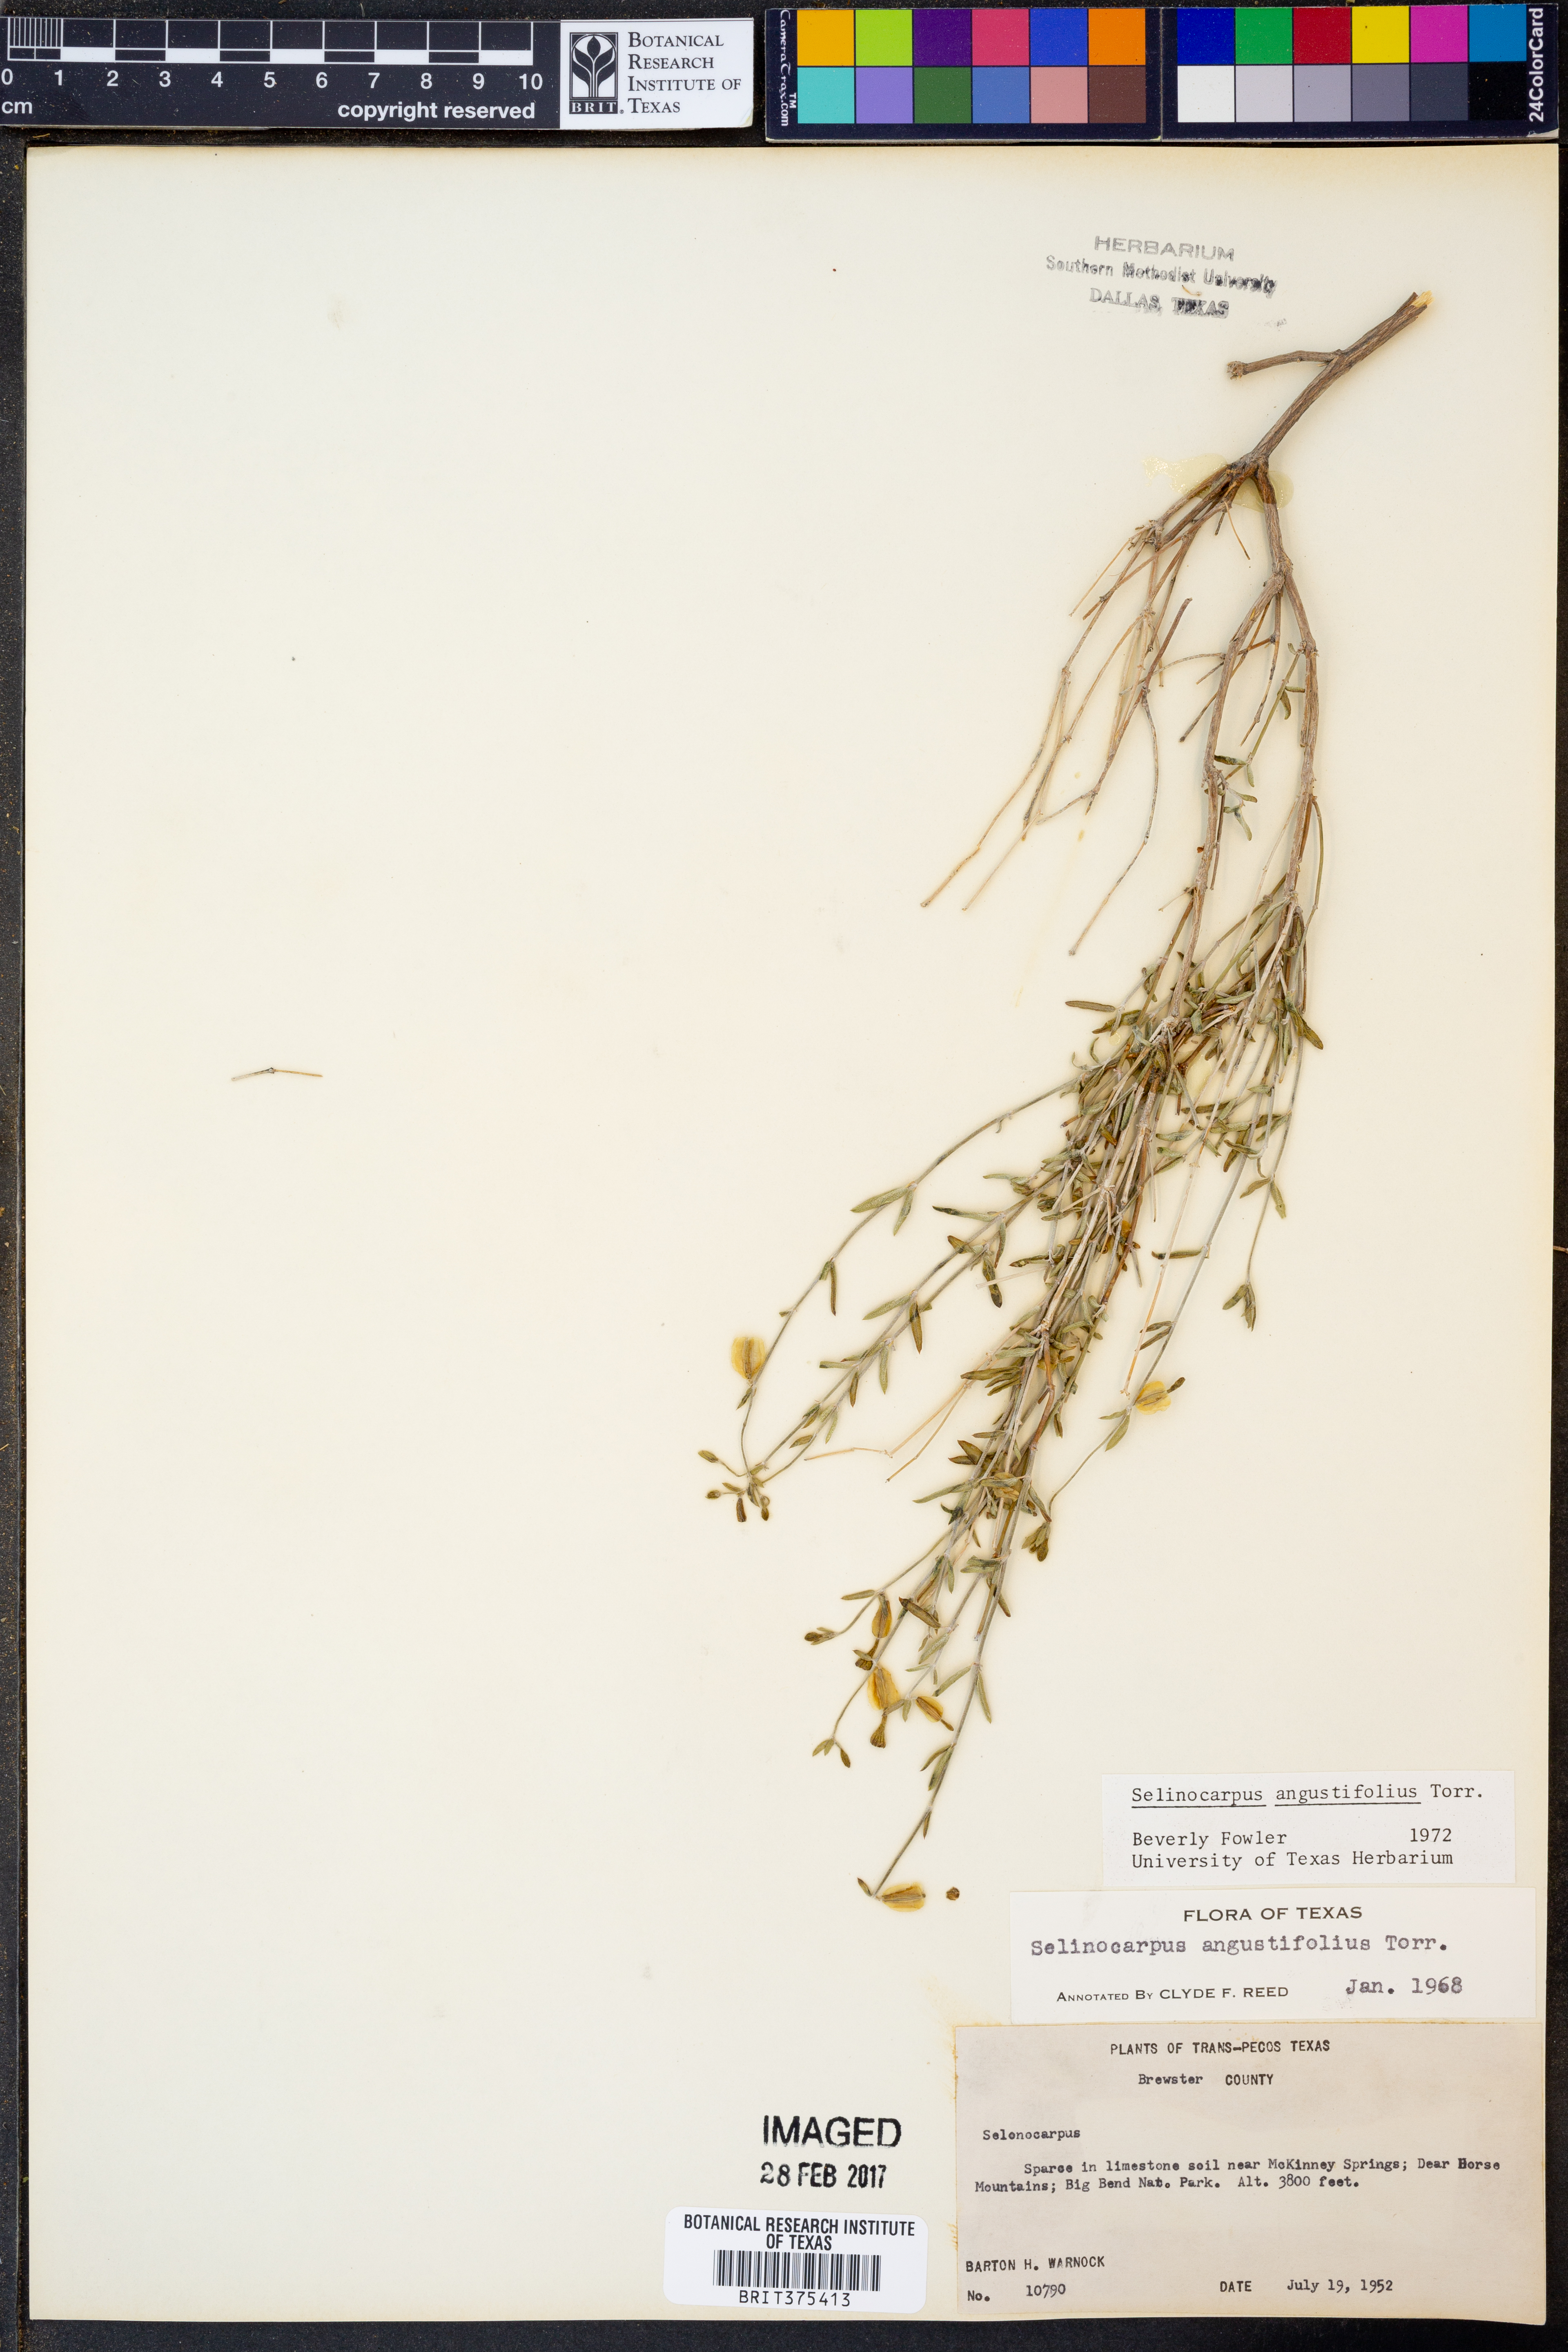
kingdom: Plantae
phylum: Tracheophyta
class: Magnoliopsida
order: Caryophyllales
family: Nyctaginaceae
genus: Acleisanthes
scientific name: Acleisanthes angustifolia
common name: Narrowleaf moonpod
